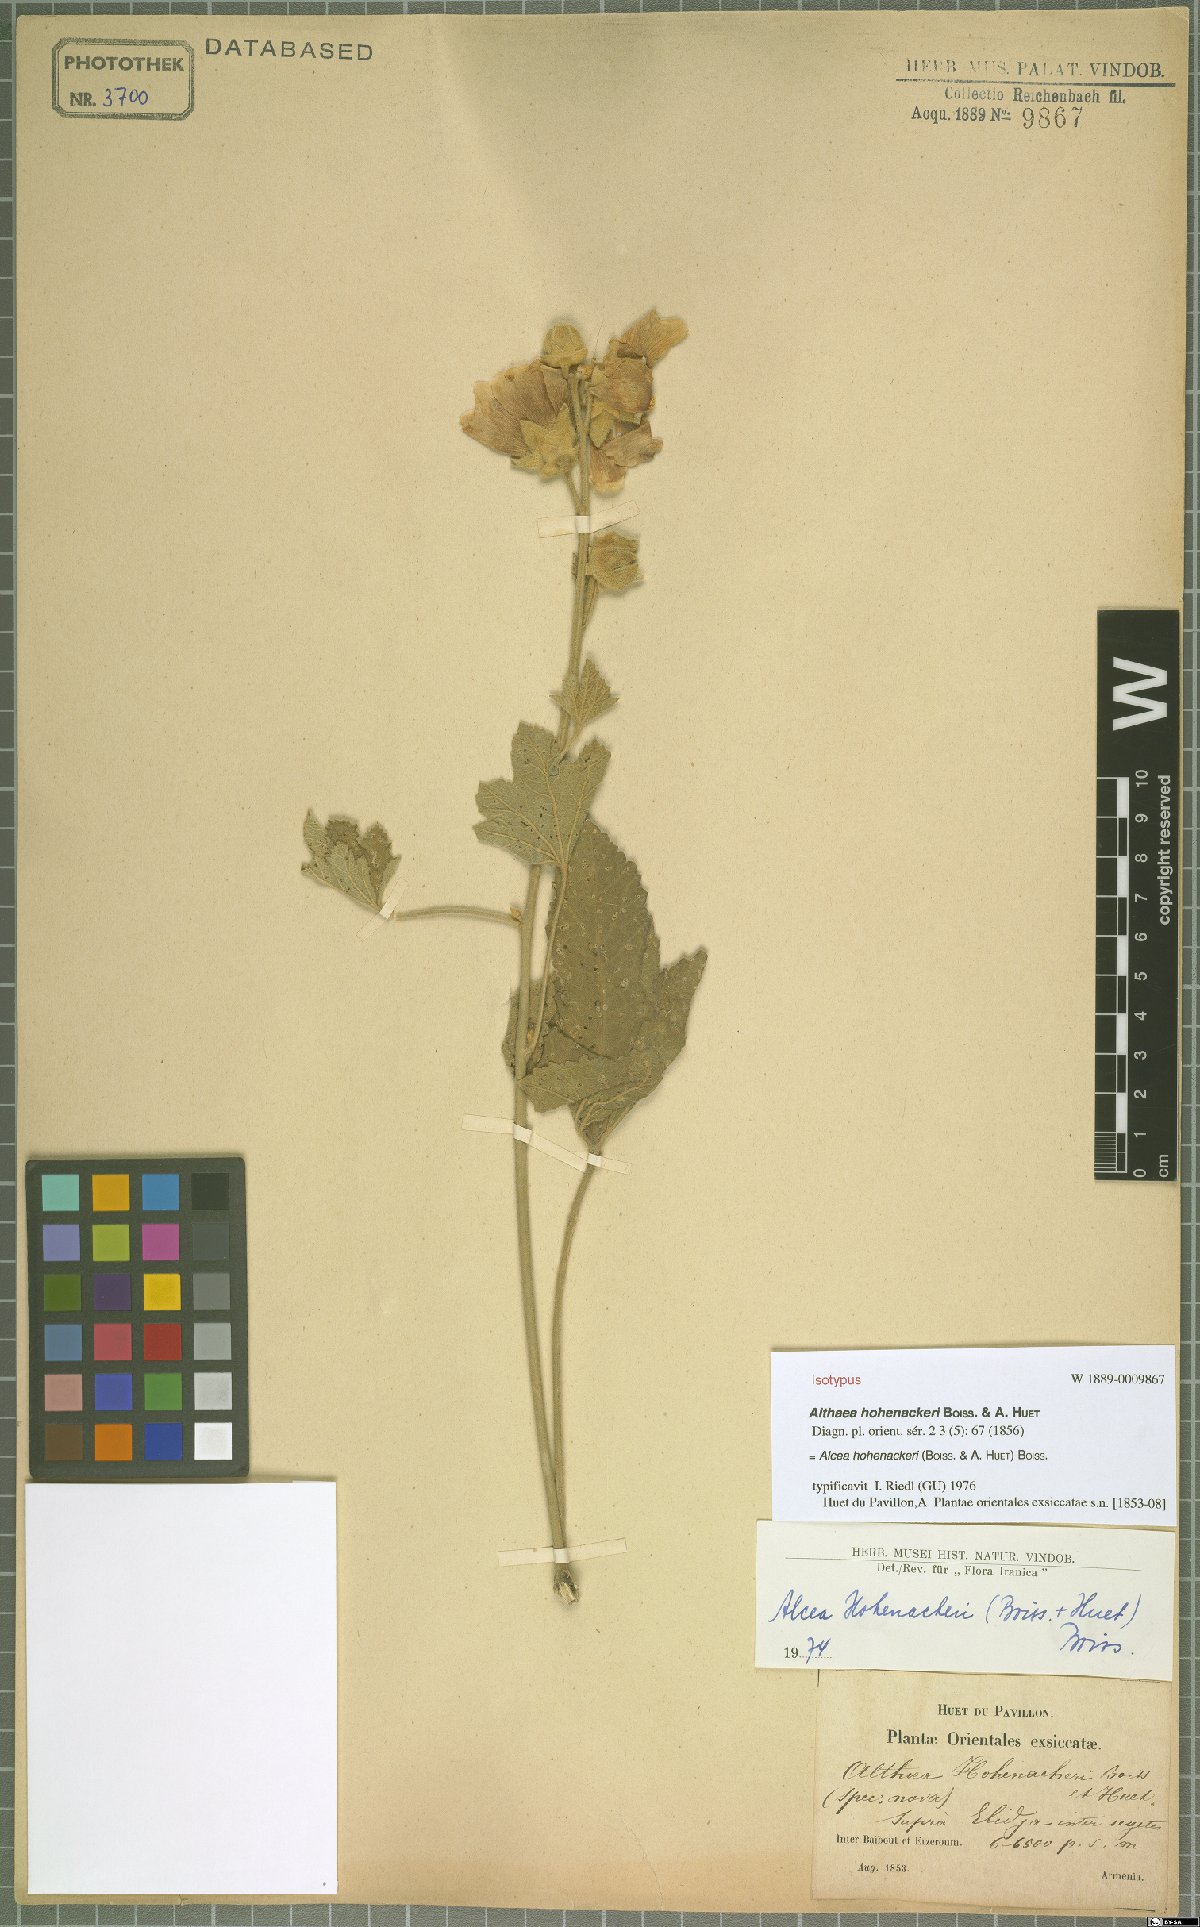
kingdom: Plantae
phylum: Tracheophyta
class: Magnoliopsida
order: Malvales
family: Malvaceae
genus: Alcea
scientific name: Alcea kurdica
